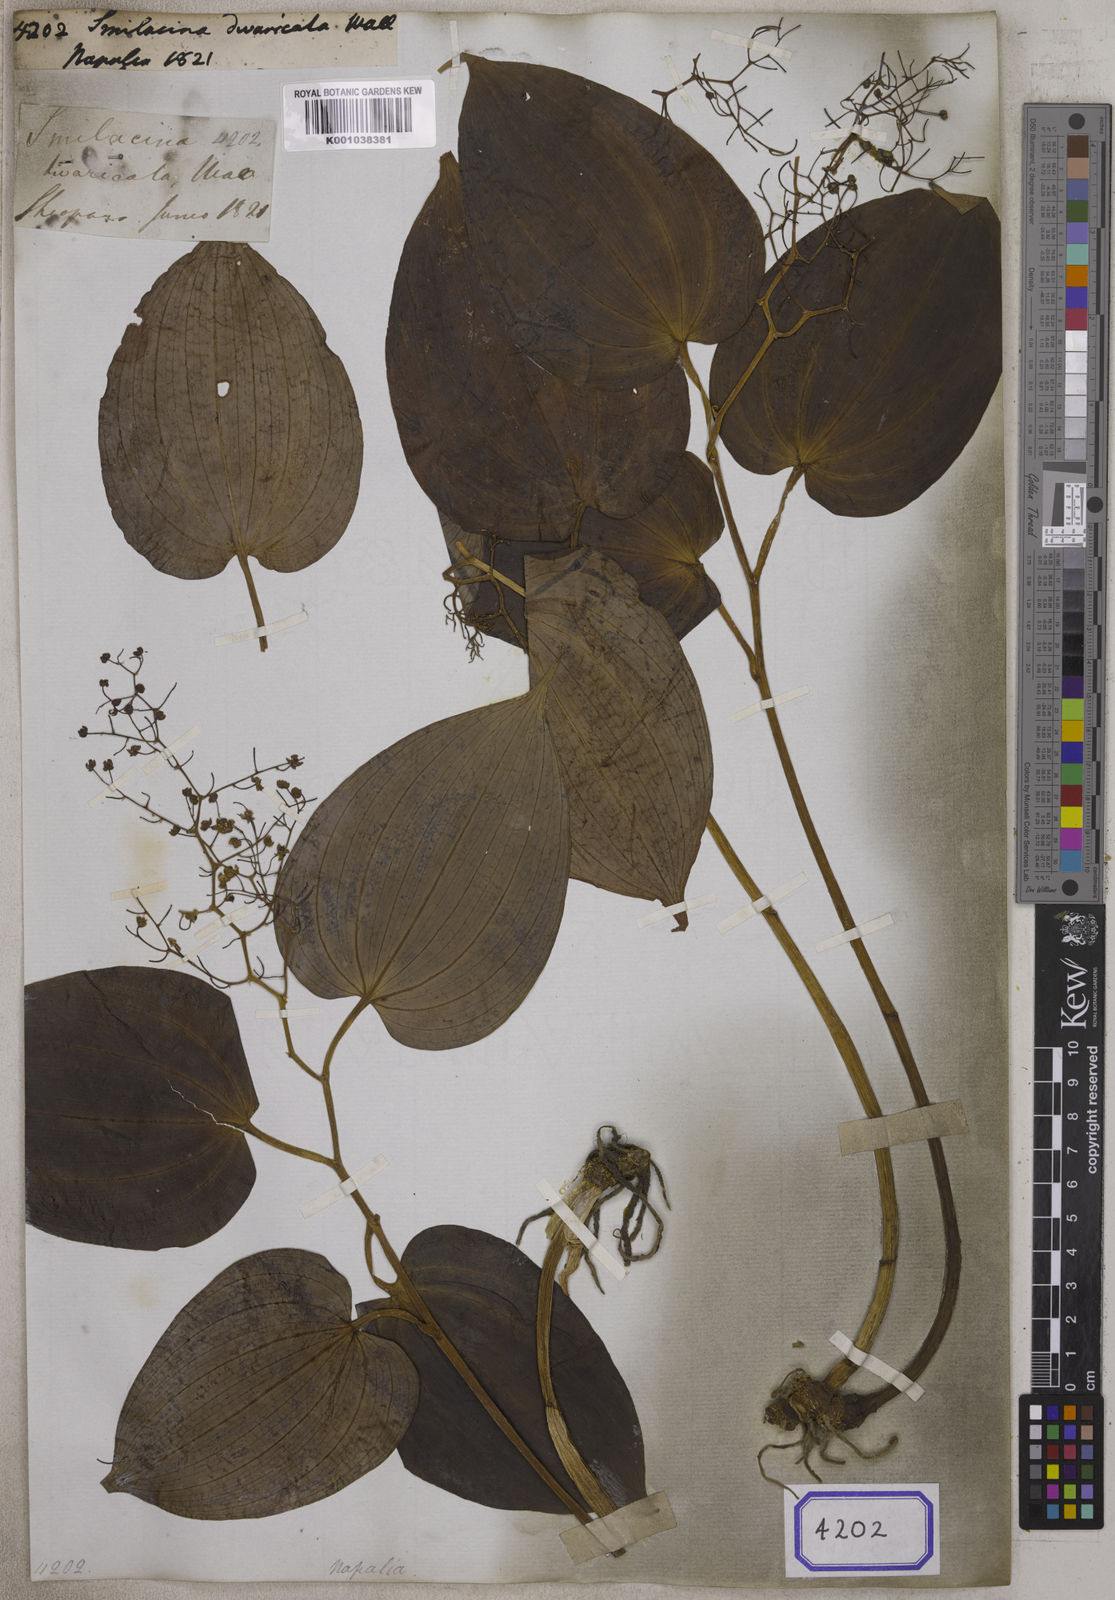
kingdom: Plantae
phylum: Tracheophyta
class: Liliopsida
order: Liliales
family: Liliaceae
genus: Smilacina
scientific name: Smilacina
